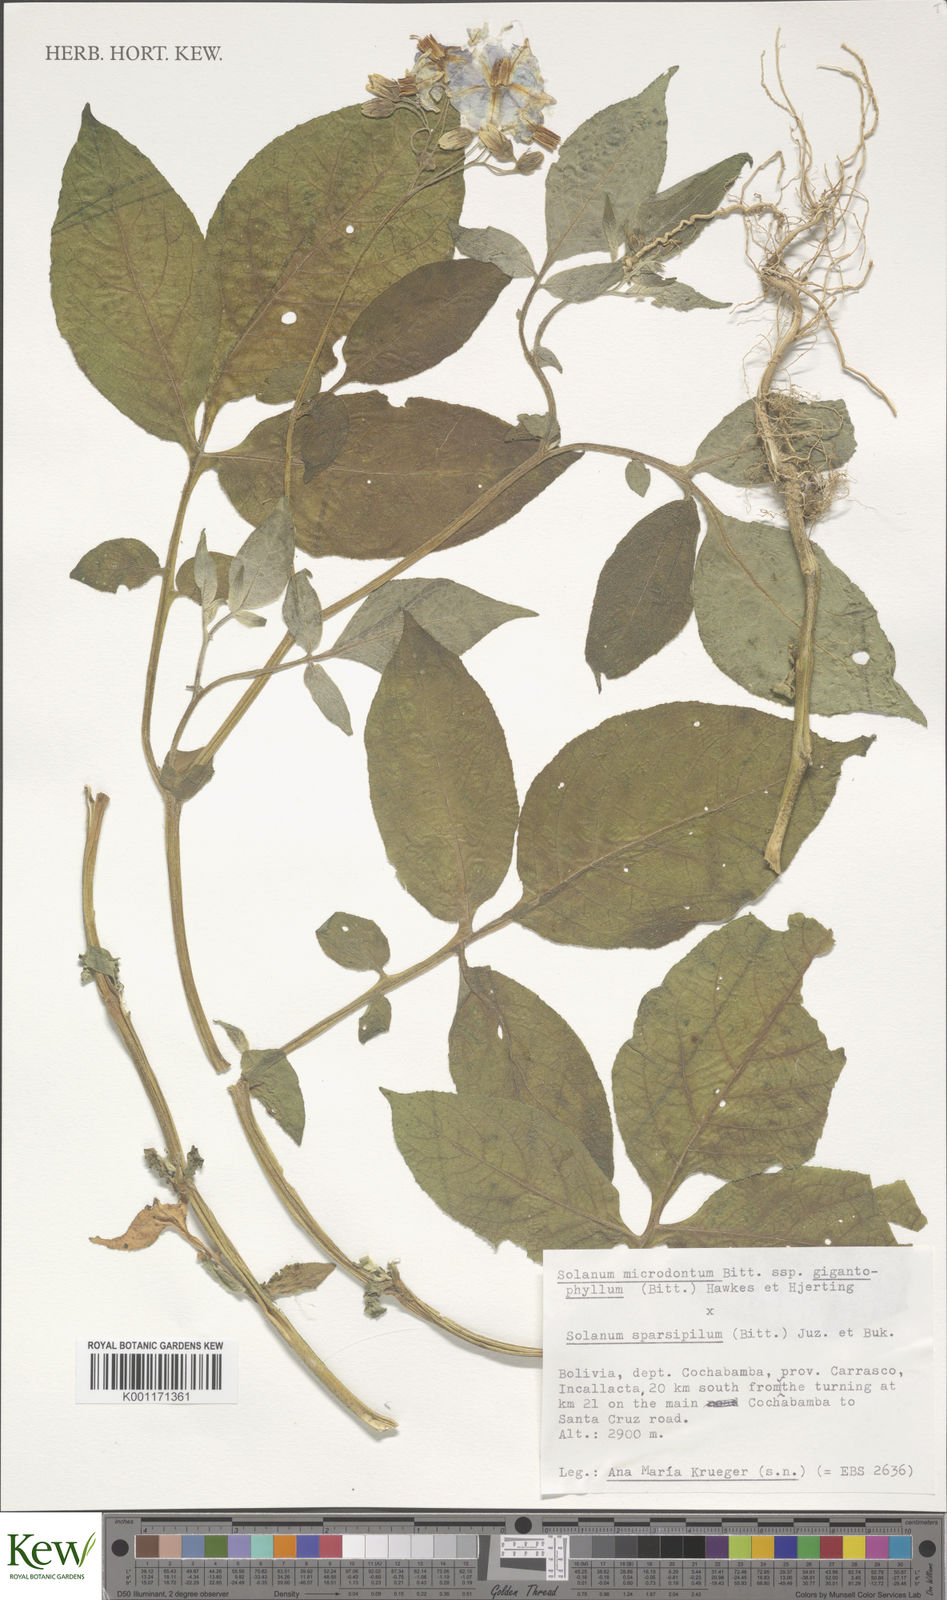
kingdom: Plantae
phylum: Tracheophyta
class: Magnoliopsida
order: Solanales
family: Solanaceae
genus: Solanum
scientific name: Solanum microdontum
